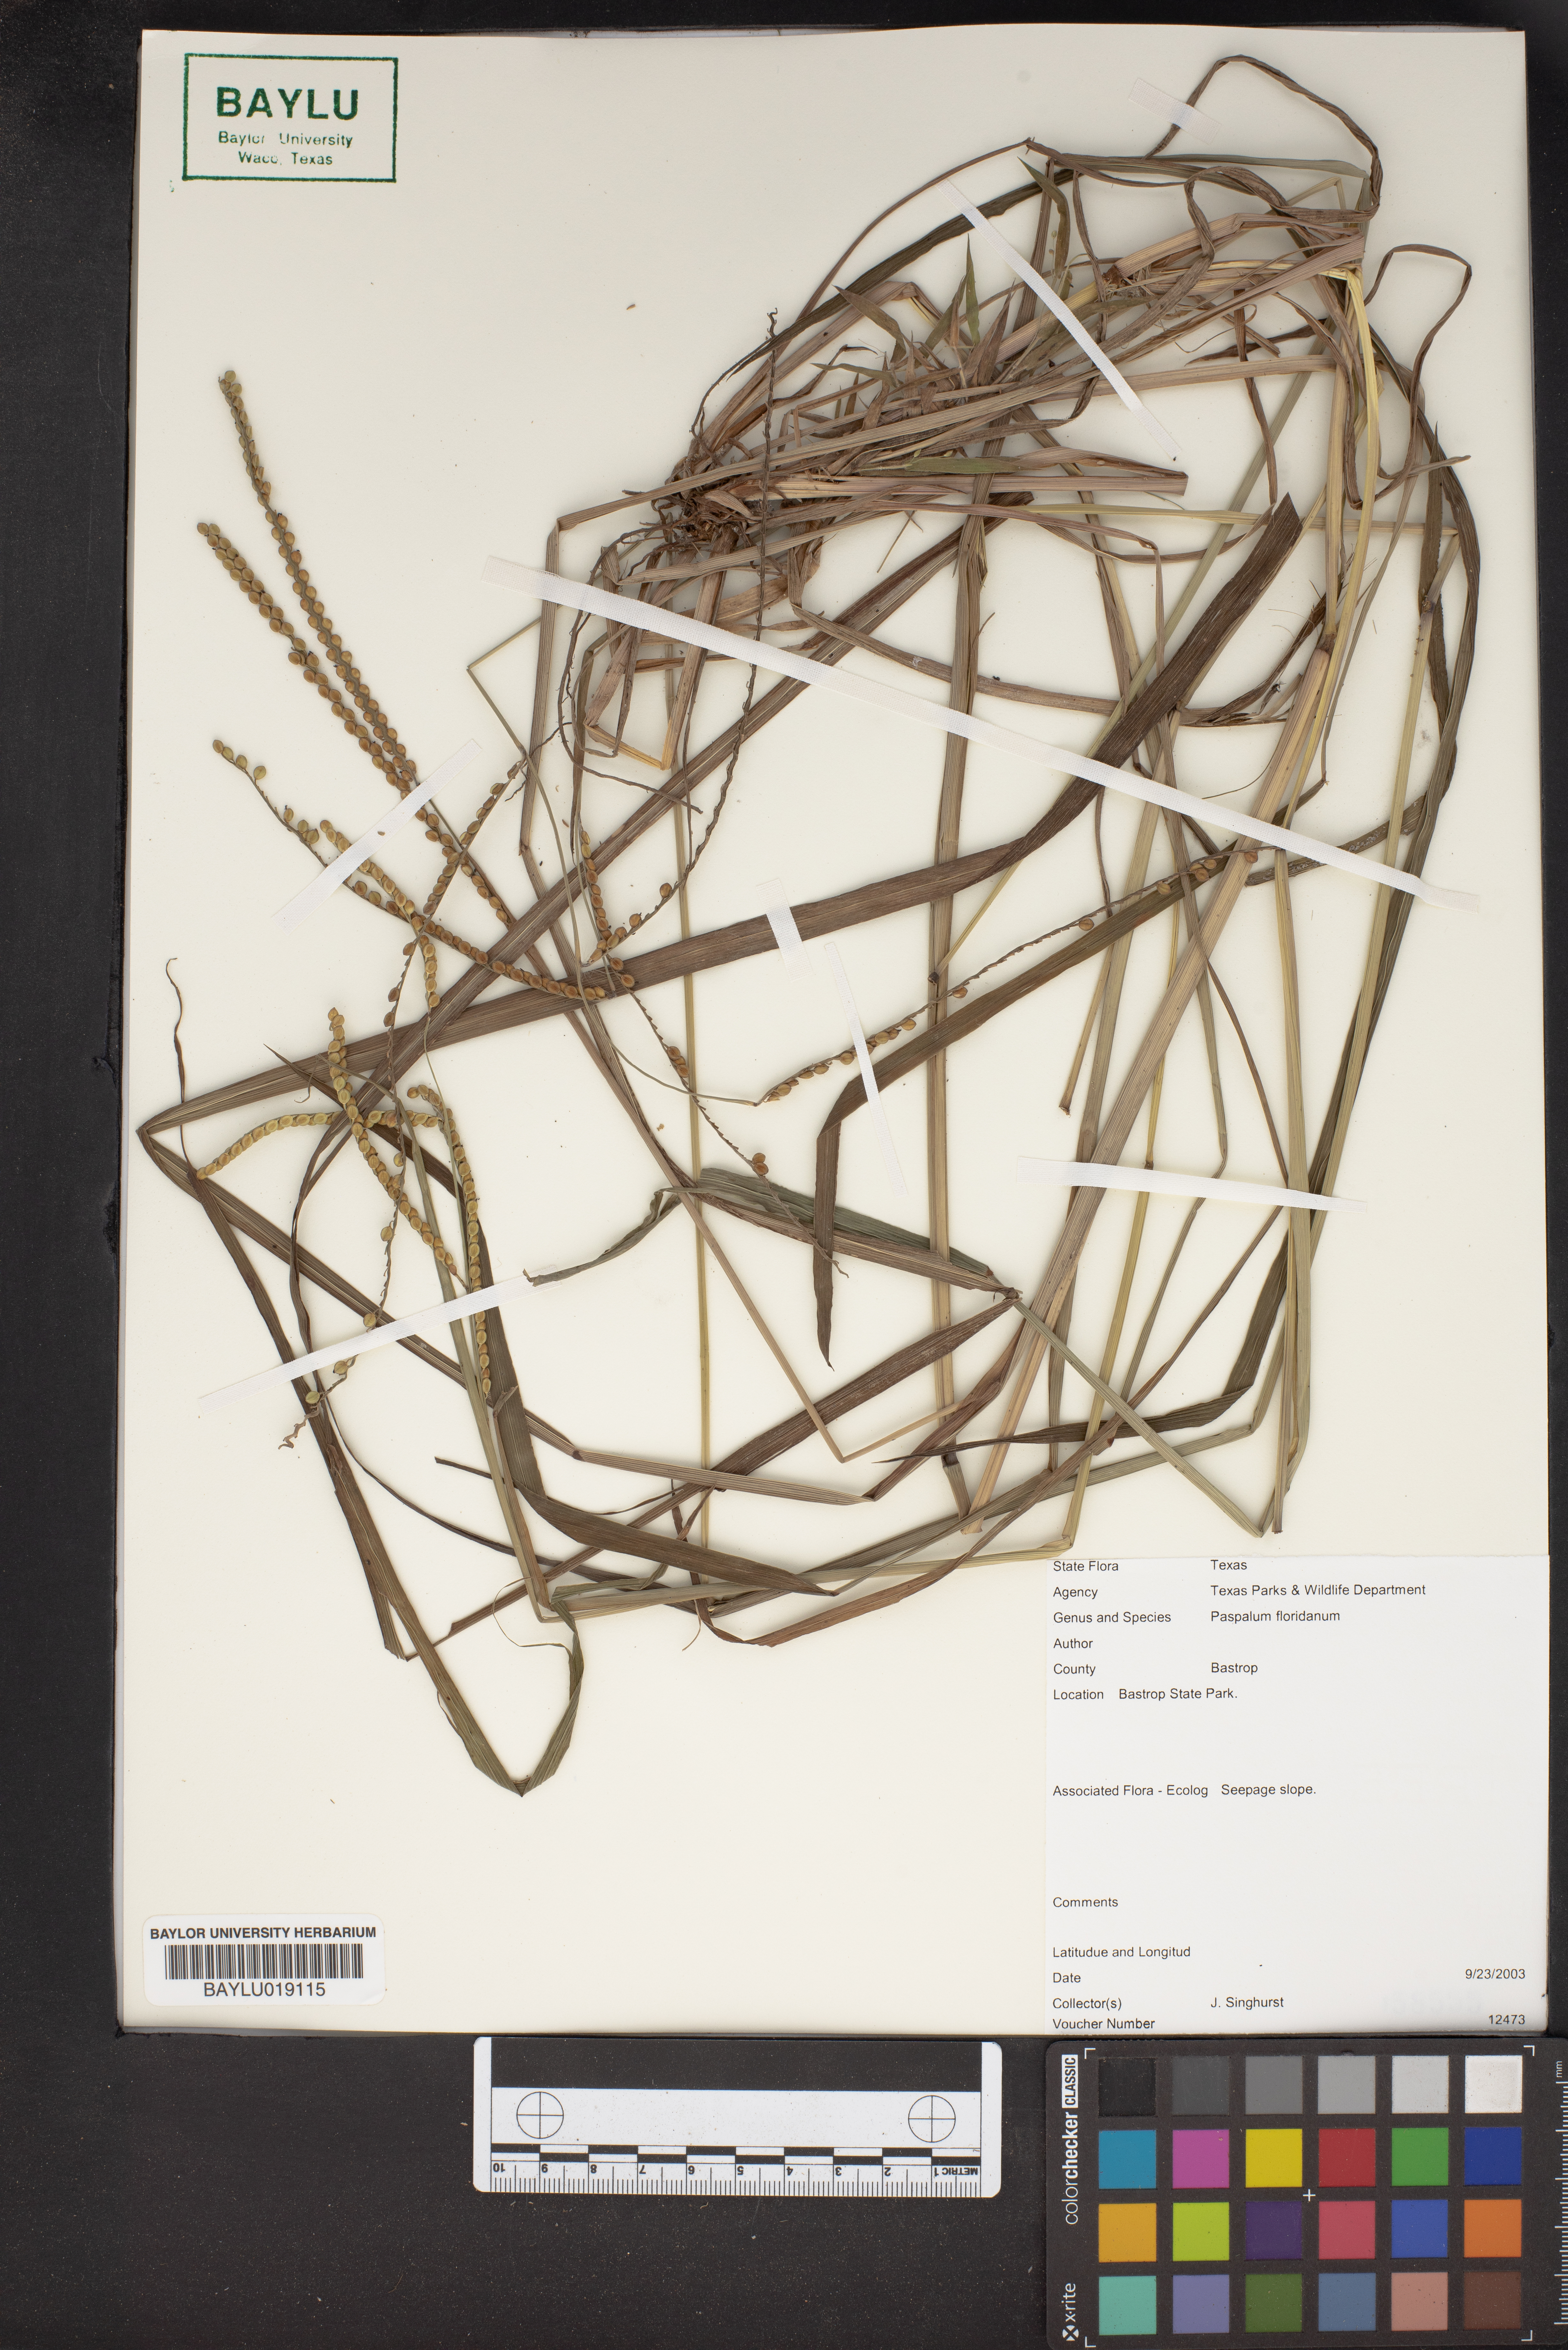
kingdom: Plantae
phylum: Tracheophyta
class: Liliopsida
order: Poales
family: Poaceae
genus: Paspalum
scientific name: Paspalum floridanum
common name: Florida paspalum
